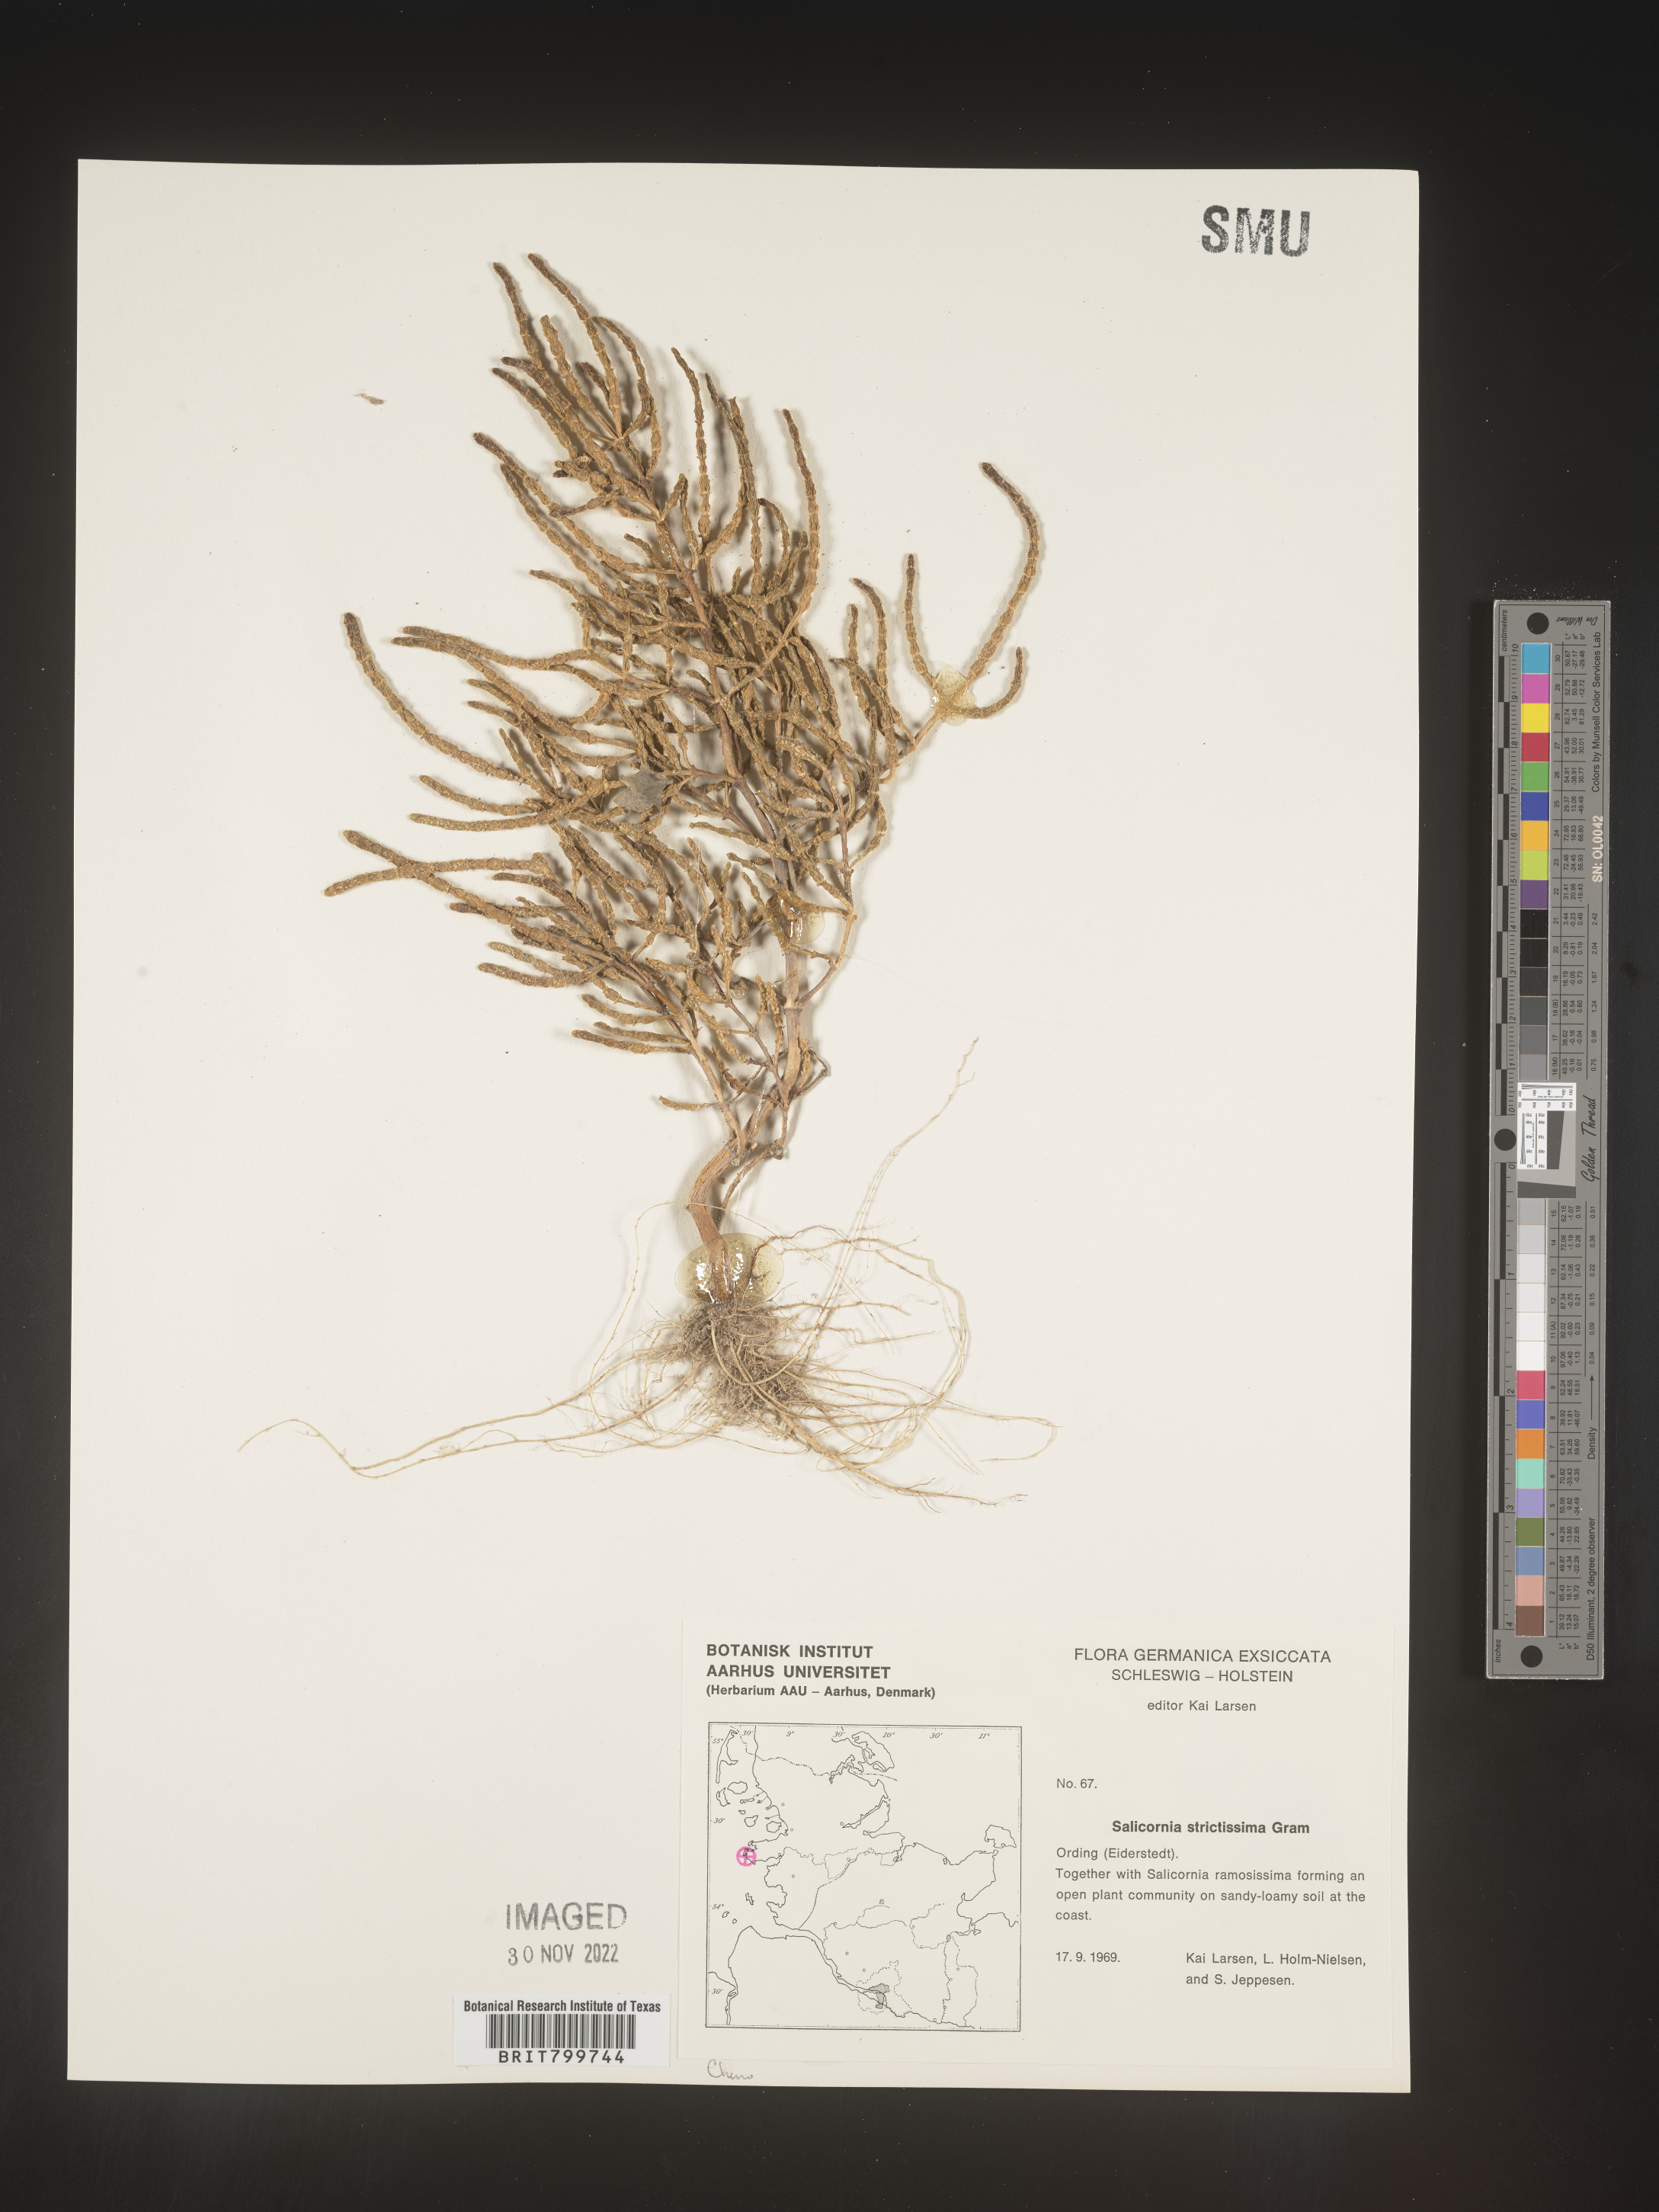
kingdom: Plantae
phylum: Tracheophyta
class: Magnoliopsida
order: Caryophyllales
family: Amaranthaceae
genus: Salicornia
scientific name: Salicornia
